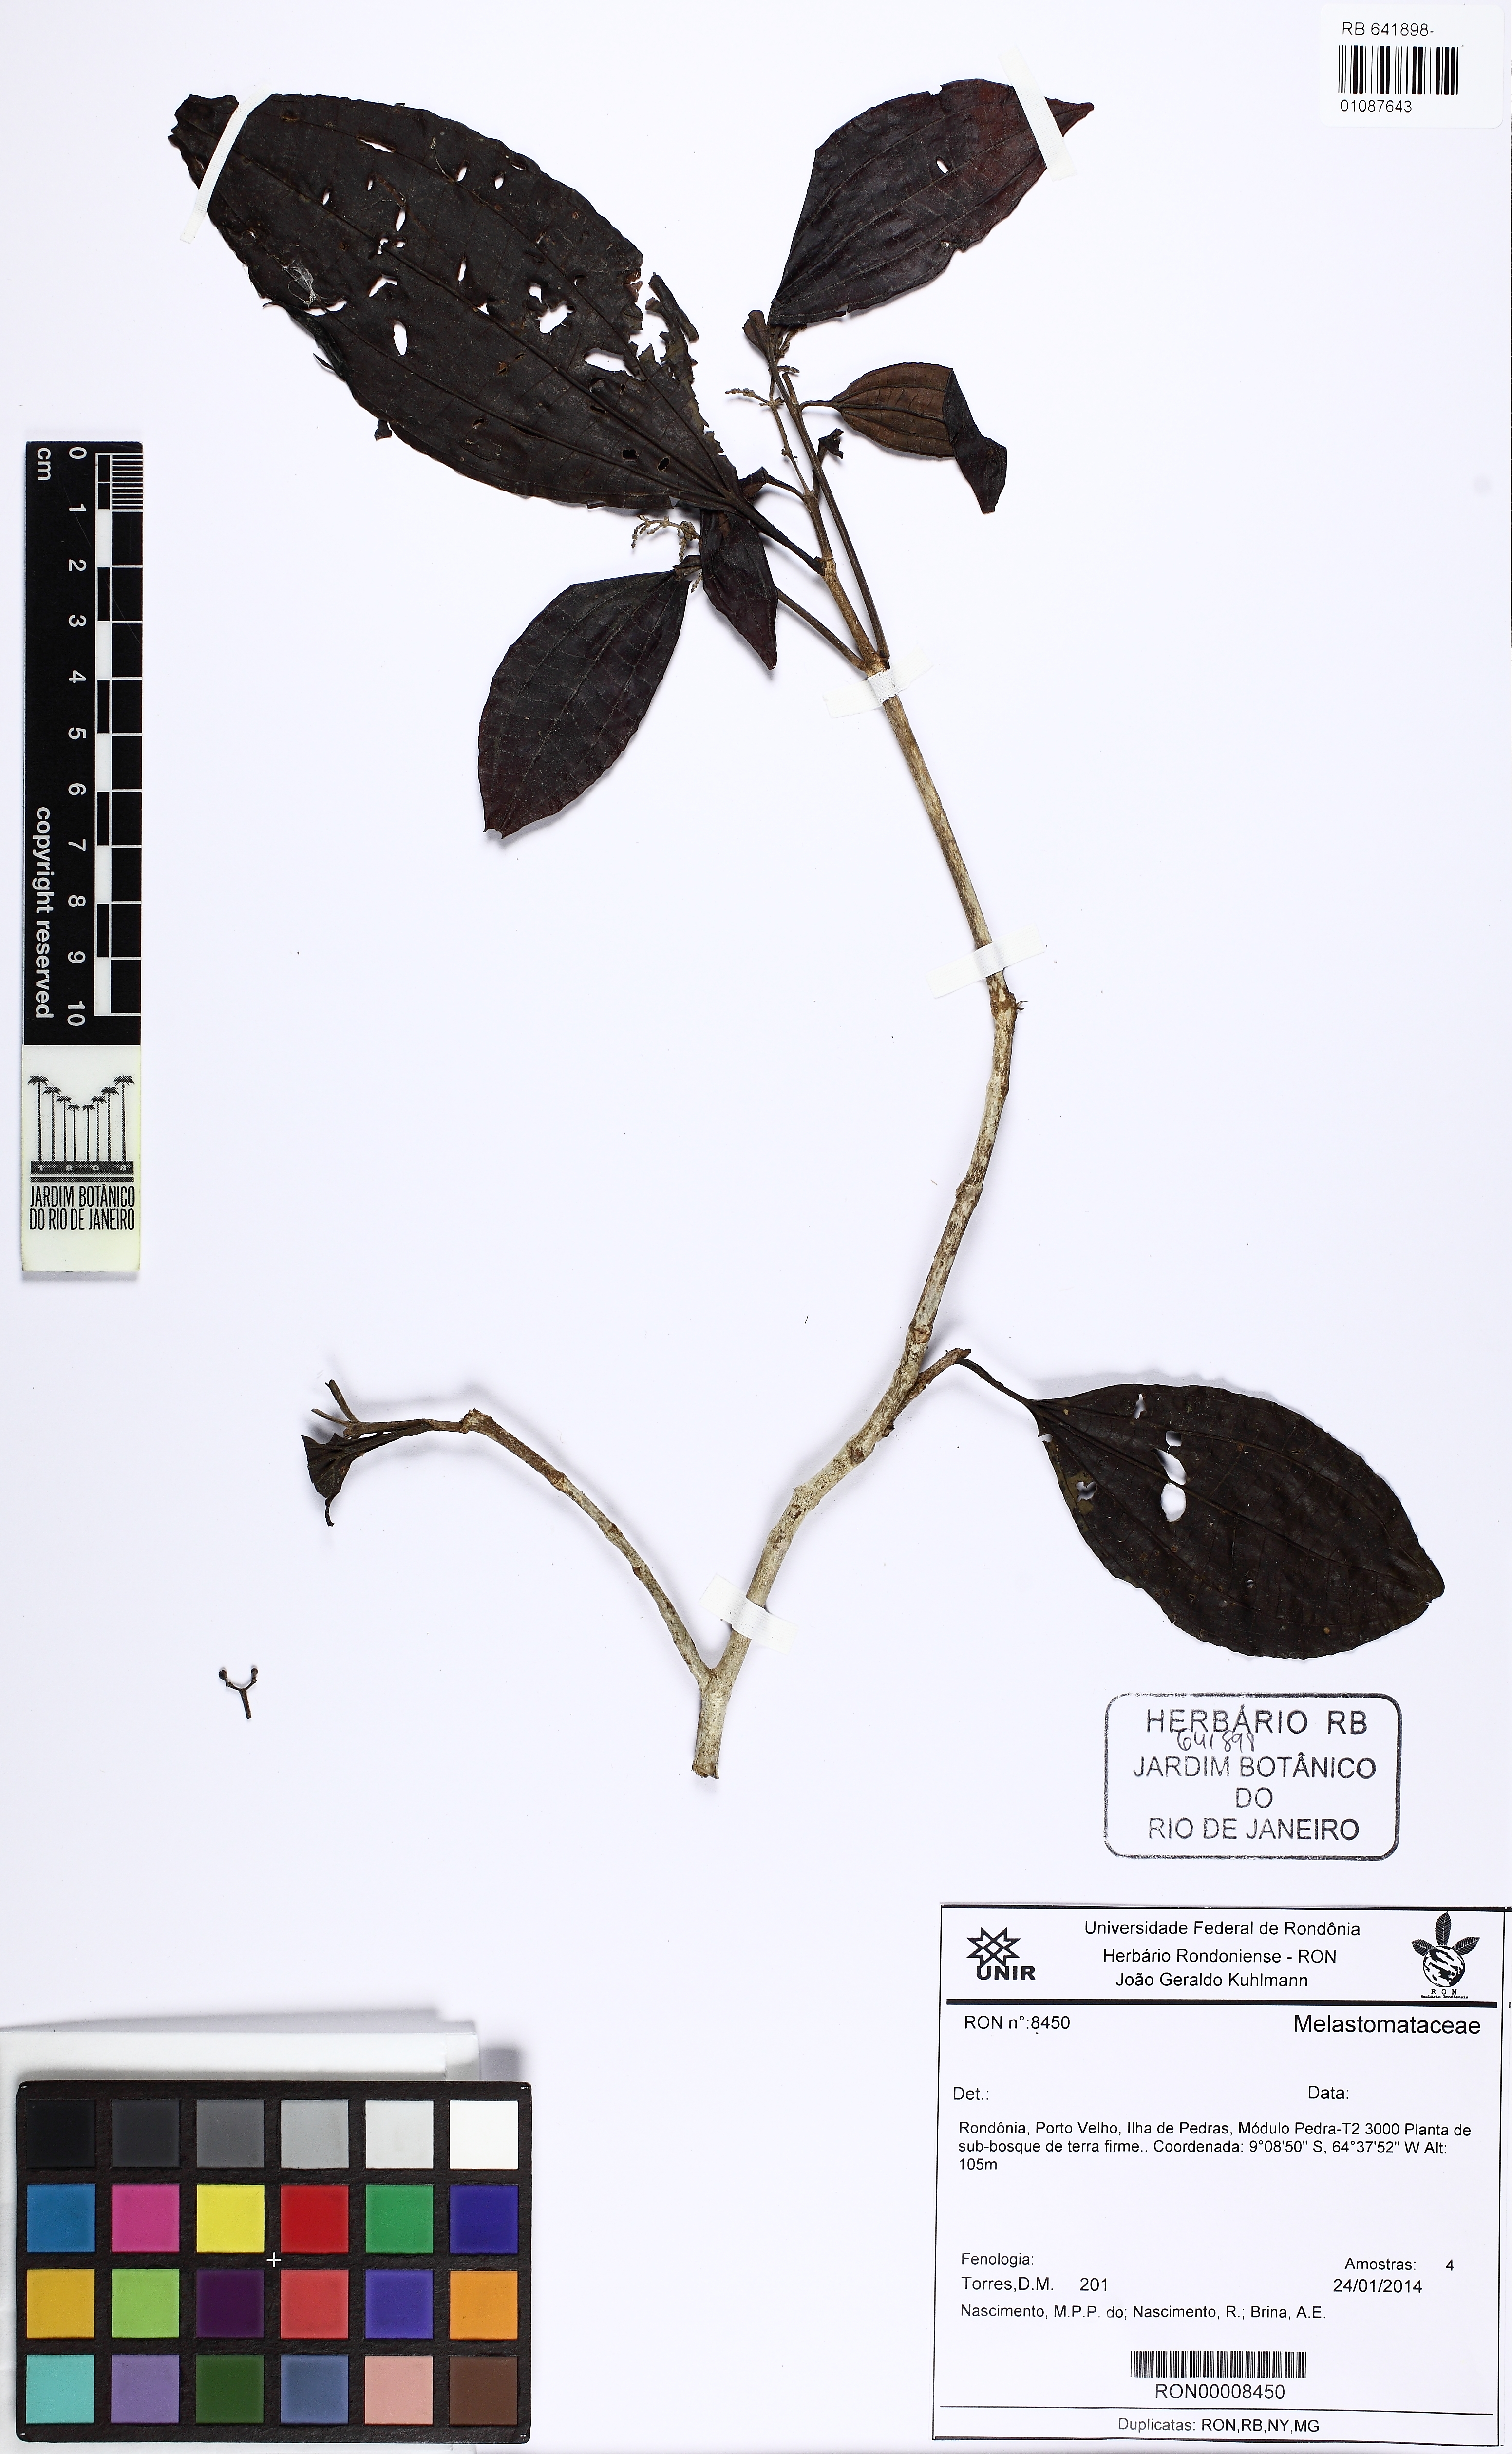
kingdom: Plantae
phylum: Tracheophyta
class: Magnoliopsida
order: Myrtales
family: Melastomataceae
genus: Miconia
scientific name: Miconia
